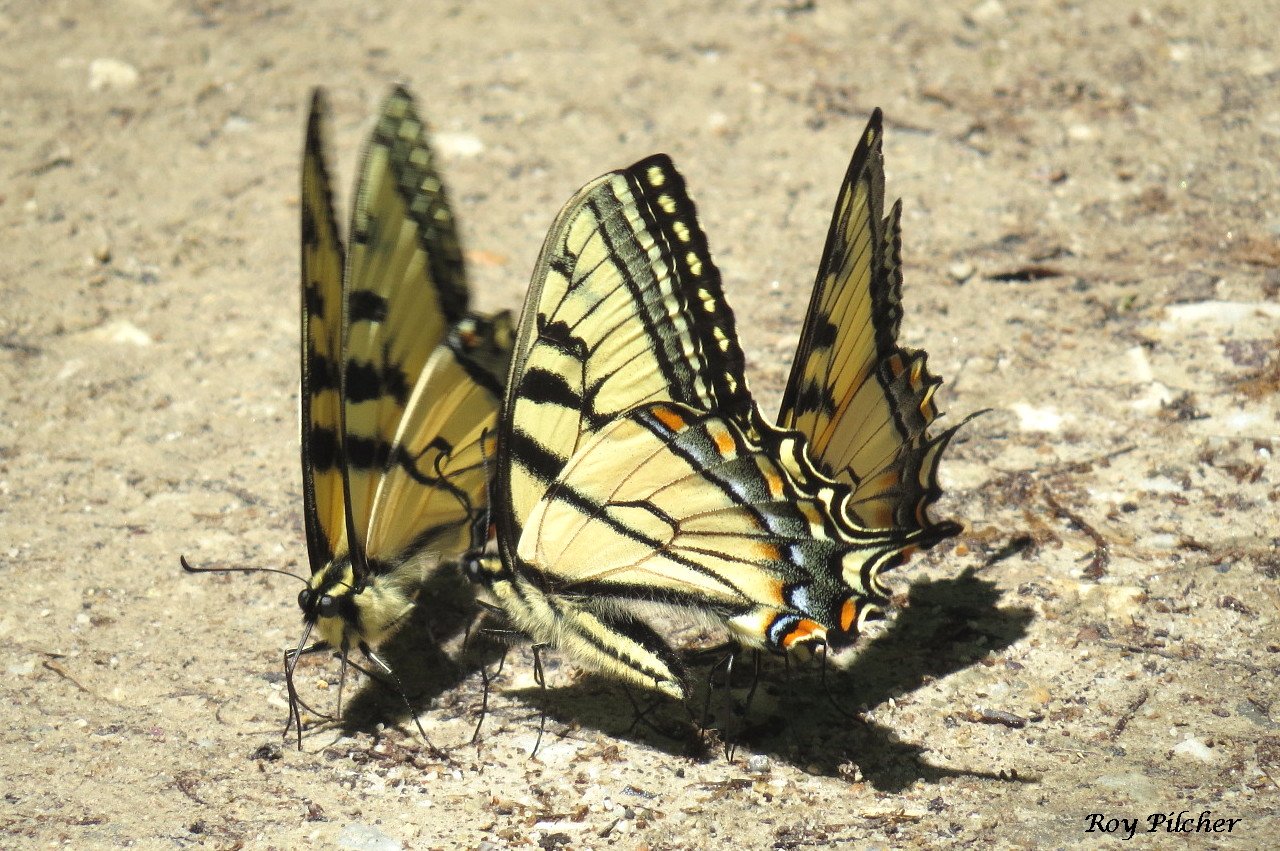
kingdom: Animalia
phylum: Arthropoda
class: Insecta
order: Lepidoptera
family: Papilionidae
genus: Pterourus
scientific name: Pterourus canadensis
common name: Canadian Tiger Swallowtail
